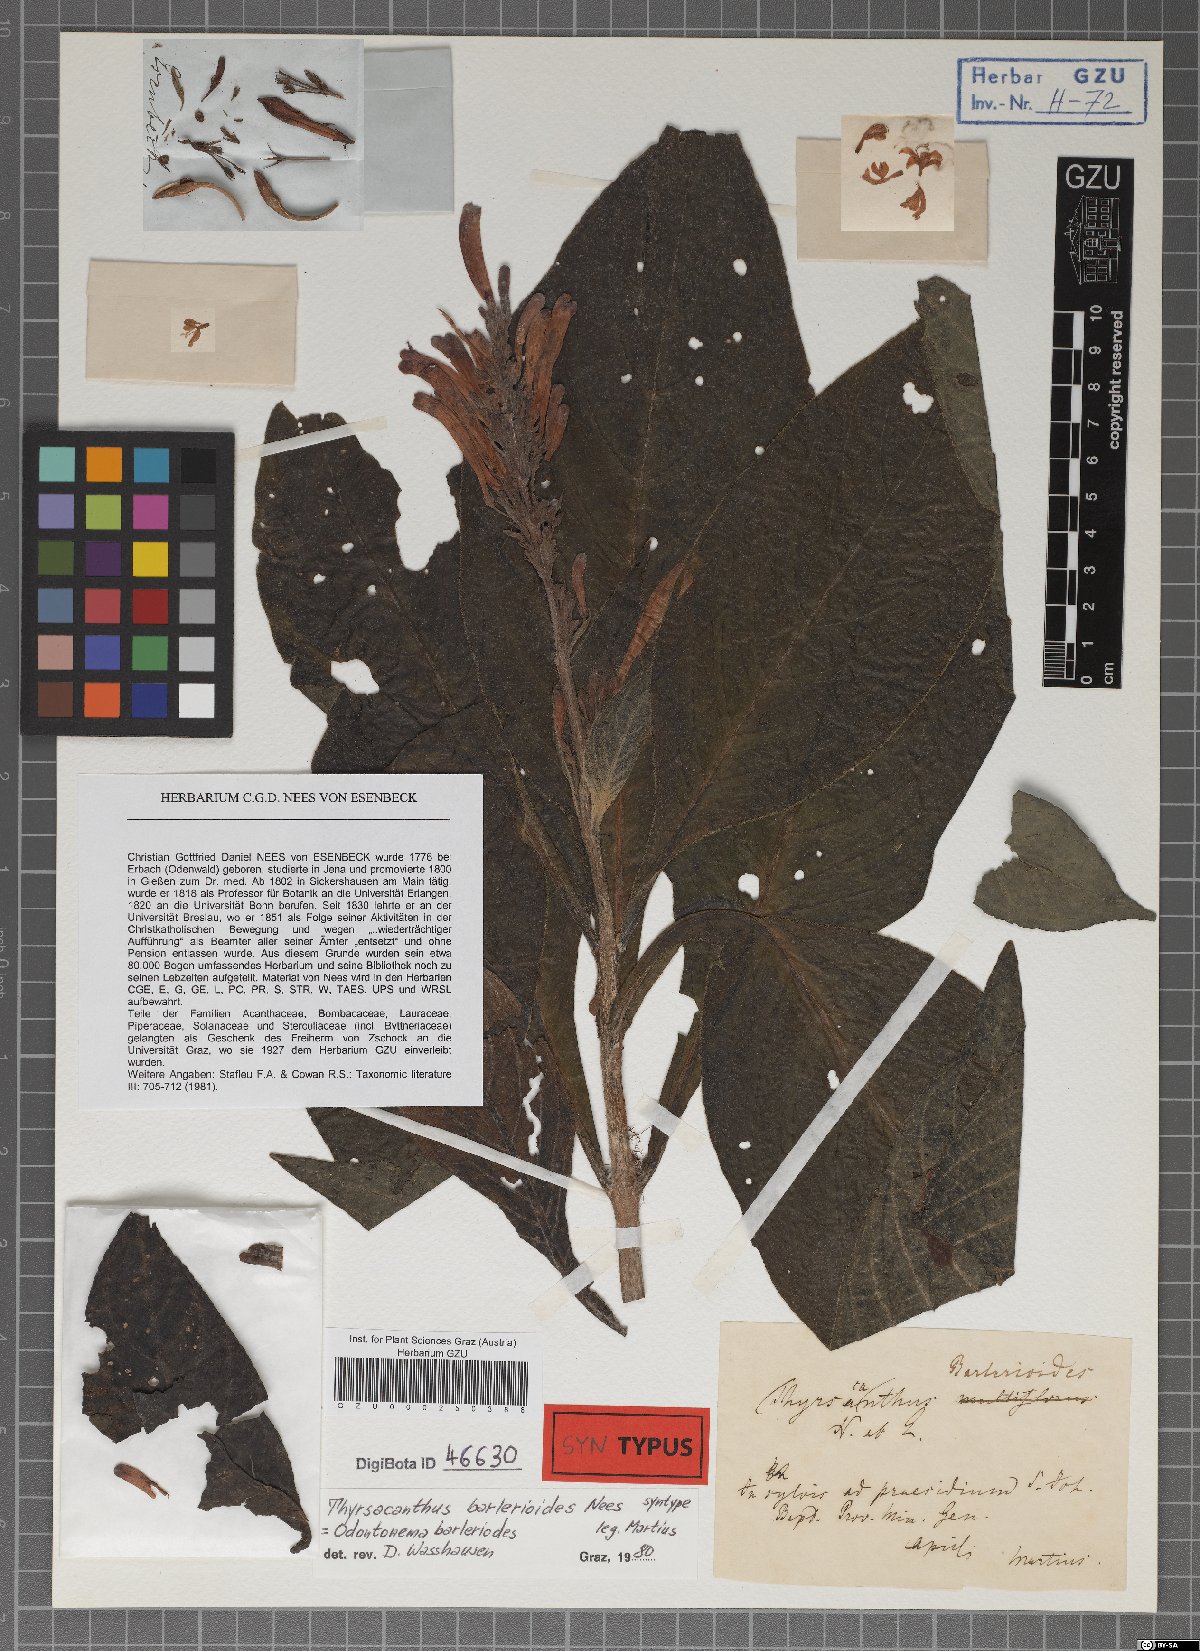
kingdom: Plantae
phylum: Tracheophyta
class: Magnoliopsida
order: Lamiales
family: Acanthaceae
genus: Odontonema
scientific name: Odontonema barlerioides
